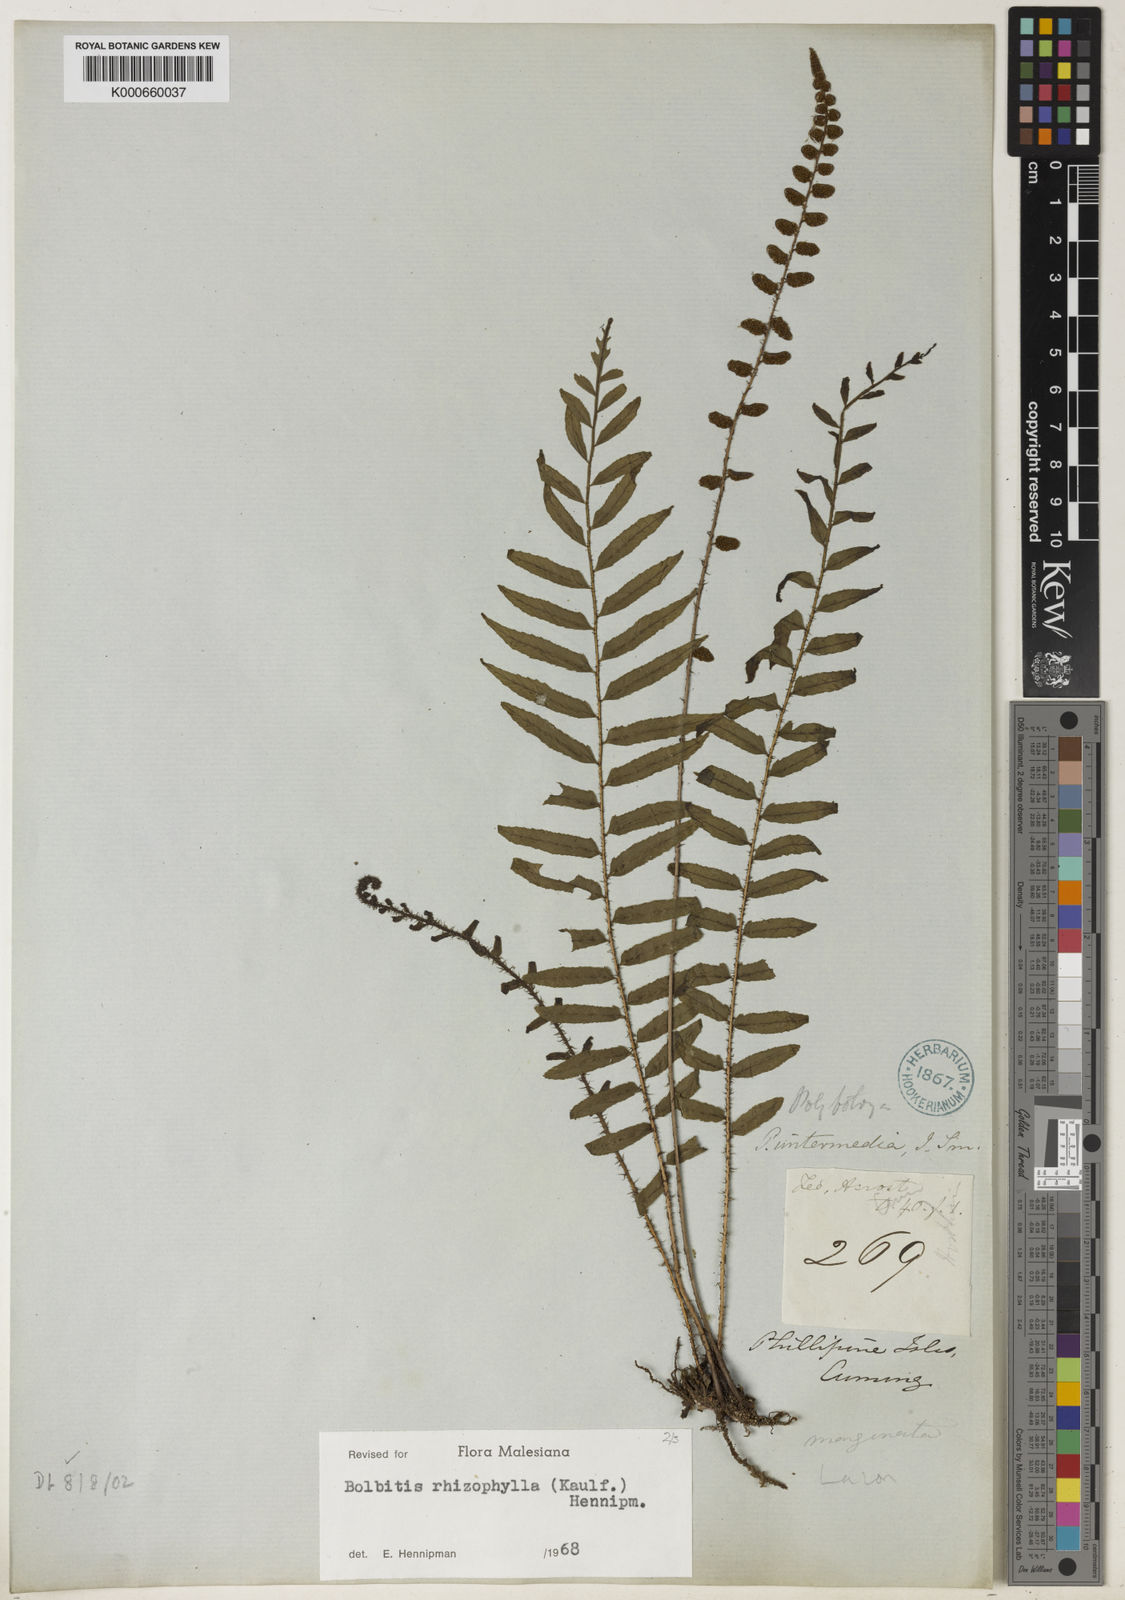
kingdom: Plantae
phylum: Tracheophyta
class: Polypodiopsida
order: Polypodiales
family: Dryopteridaceae
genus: Bolbitis
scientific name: Bolbitis rhizophylla
